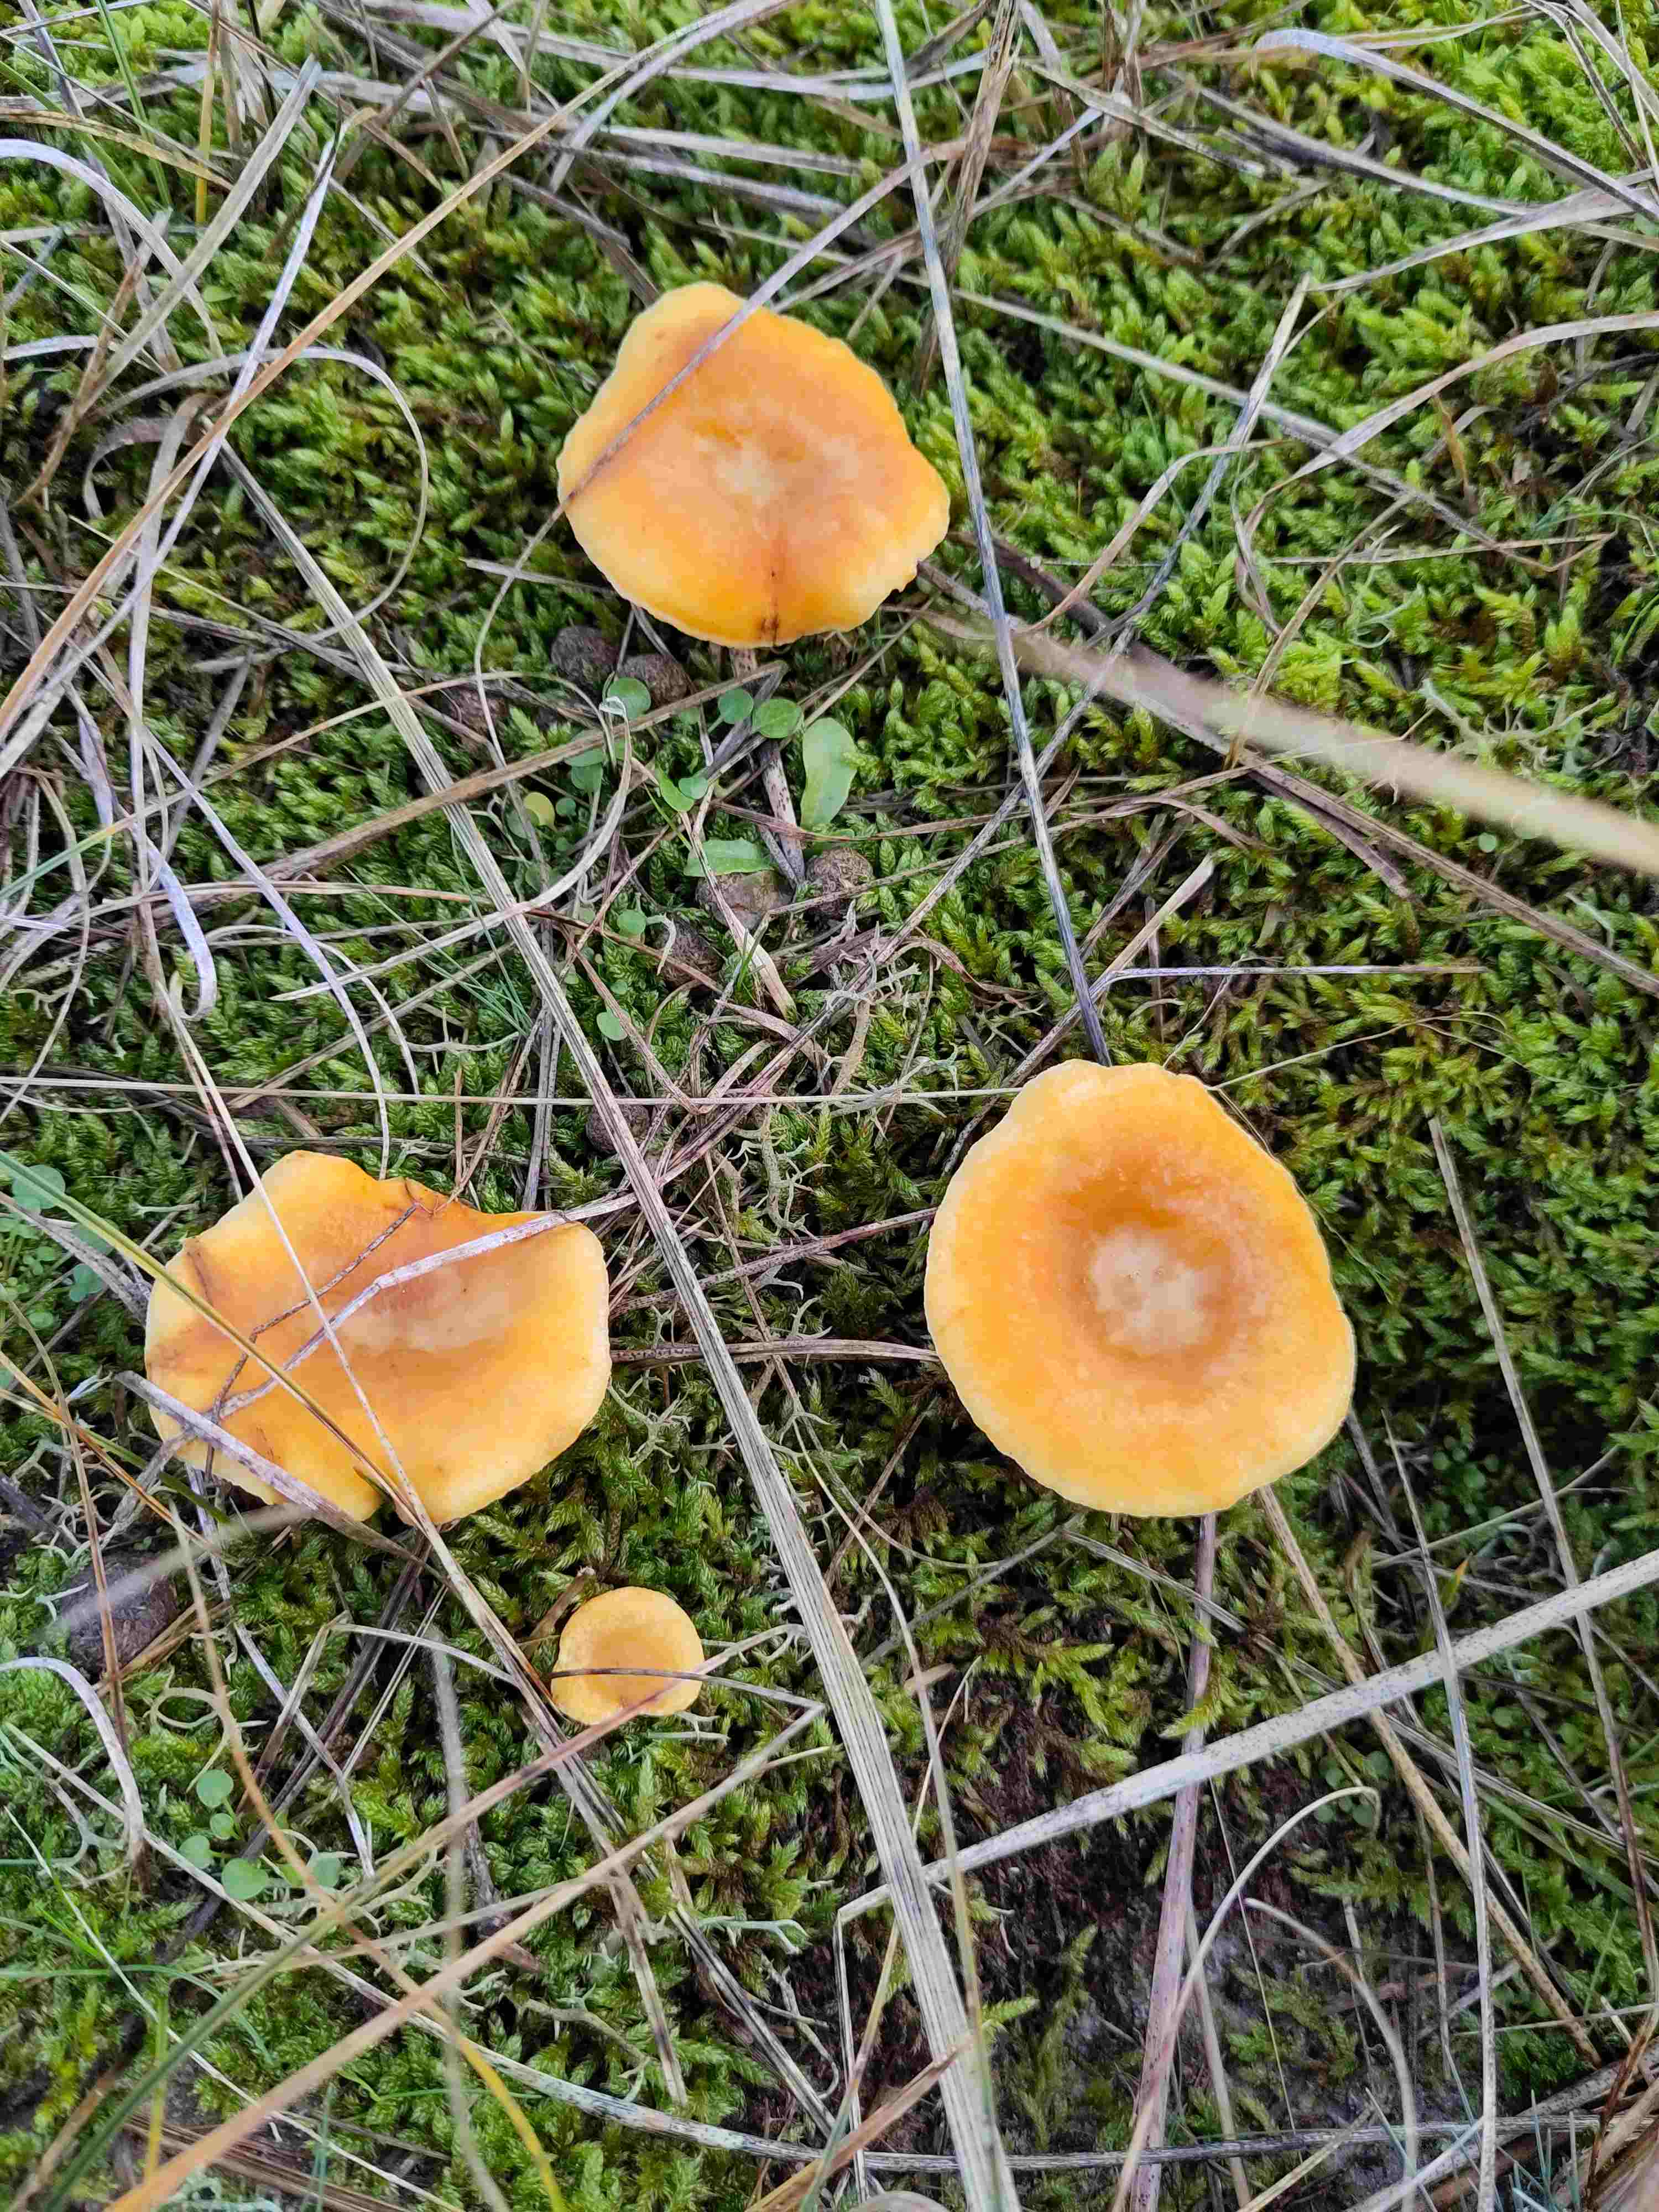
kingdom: Fungi
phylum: Basidiomycota
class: Agaricomycetes
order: Boletales
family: Hygrophoropsidaceae
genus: Hygrophoropsis
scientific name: Hygrophoropsis aurantiaca
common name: almindelig orangekantarel
